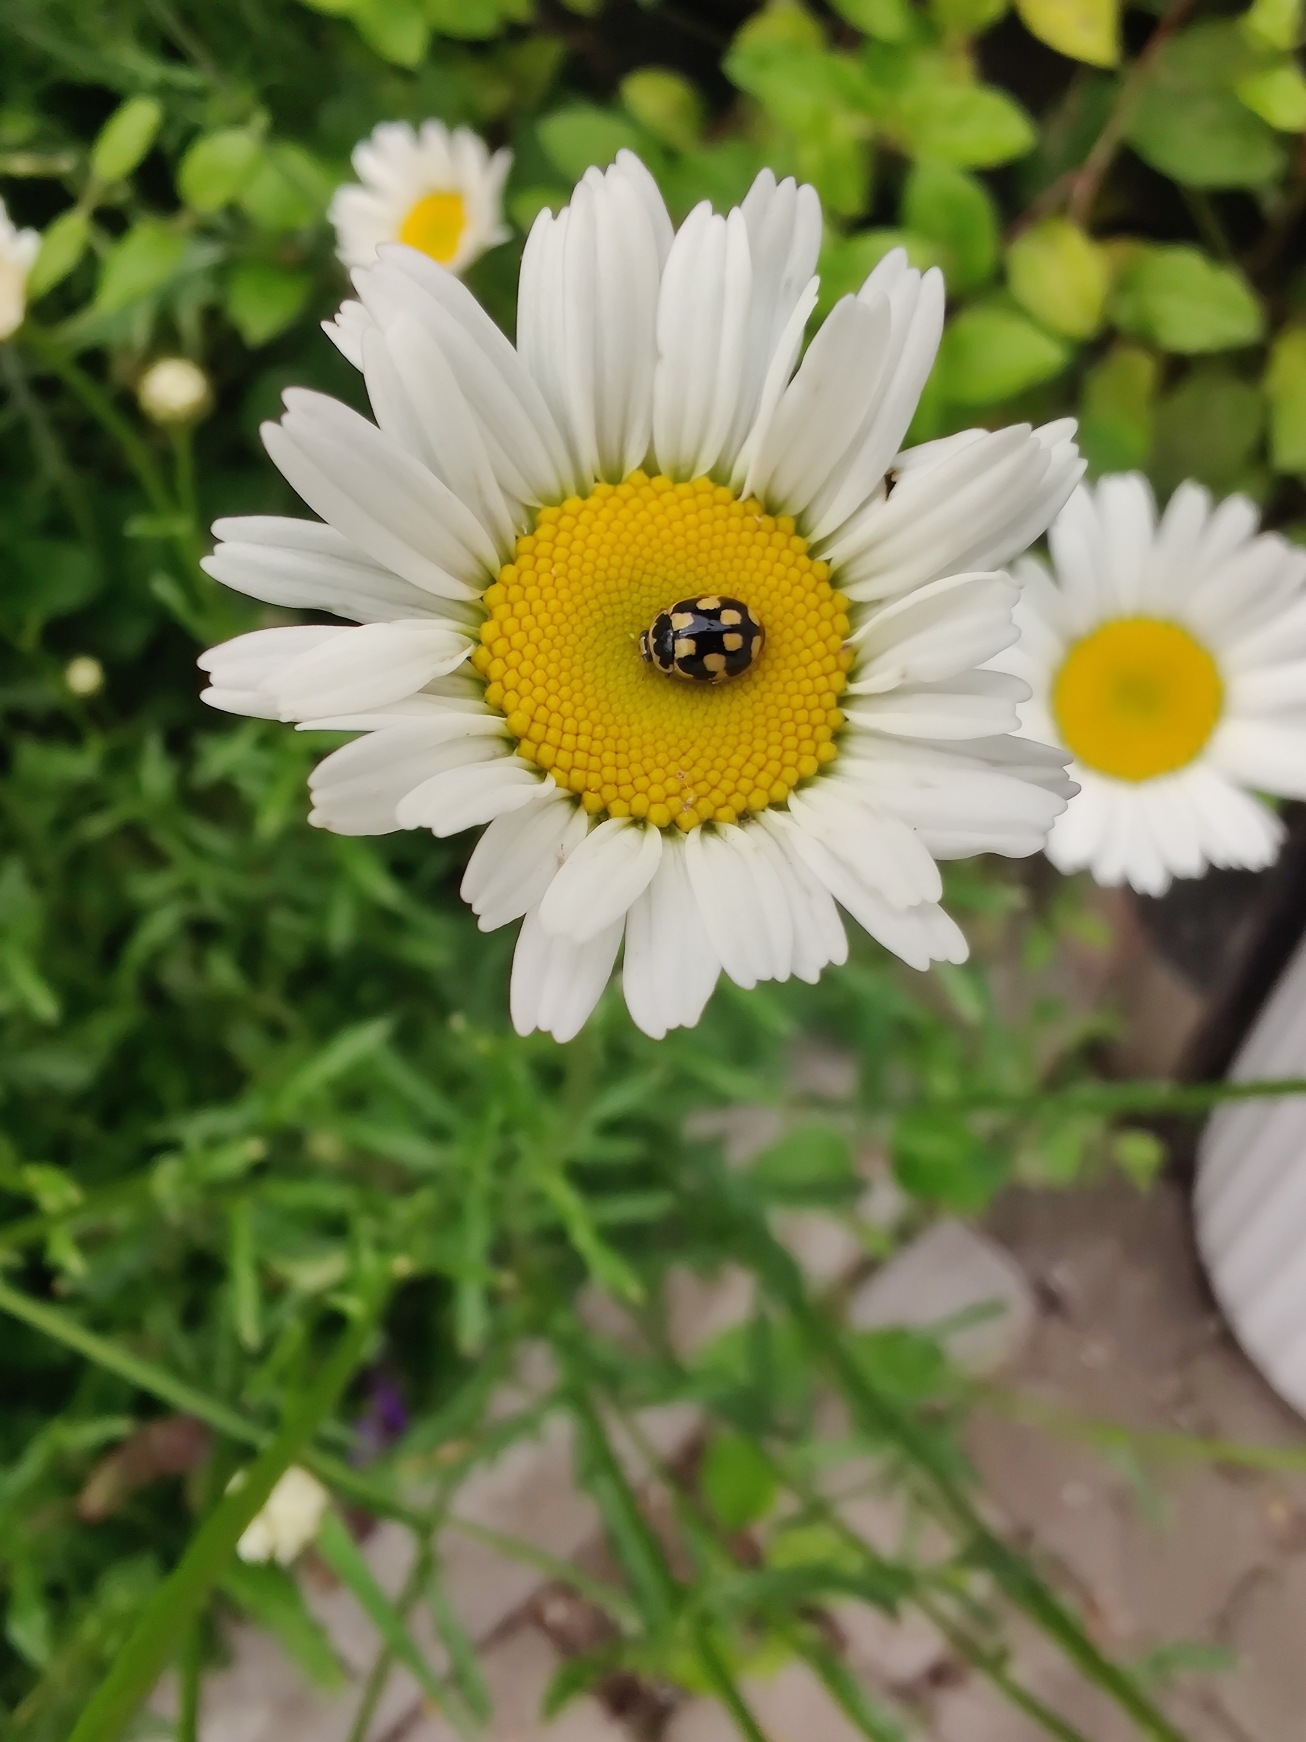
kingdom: Animalia
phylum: Arthropoda
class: Insecta
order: Coleoptera
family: Coccinellidae
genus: Propylaea
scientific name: Propylaea quatuordecimpunctata
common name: Skakbræt
